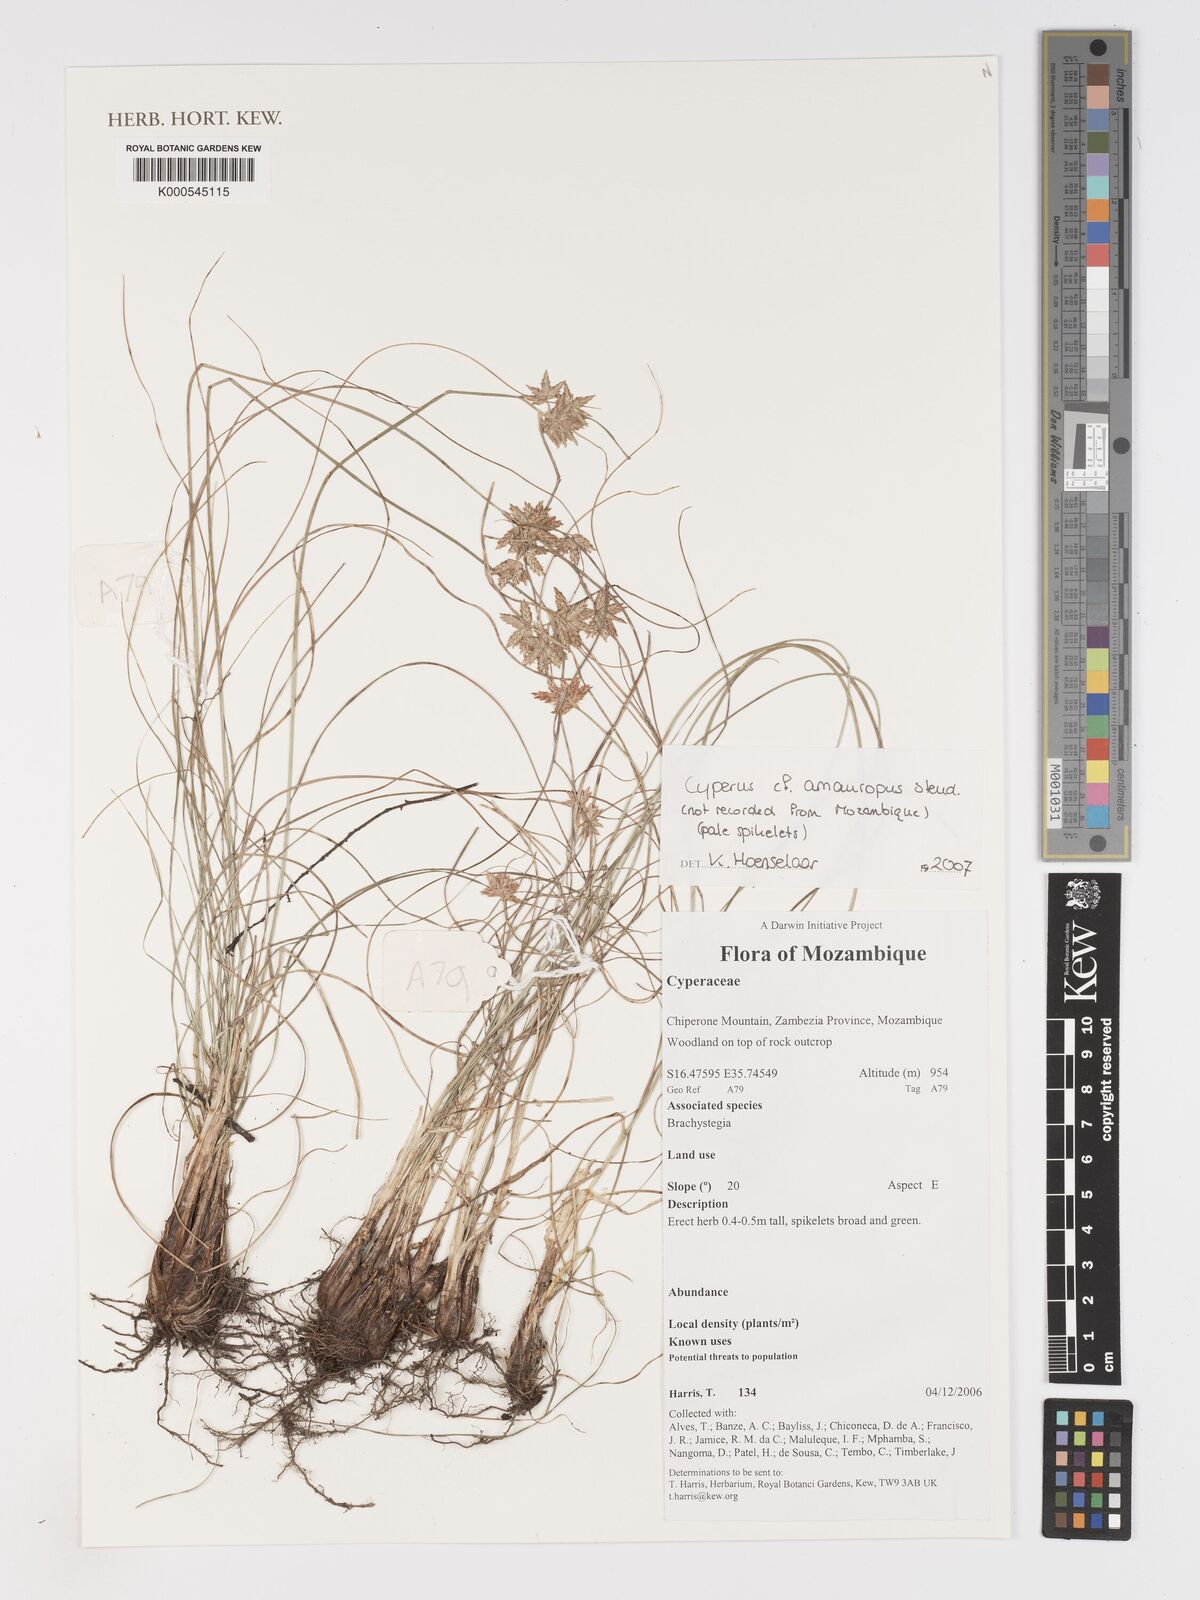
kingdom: Plantae
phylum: Tracheophyta
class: Liliopsida
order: Poales
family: Cyperaceae
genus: Cyperus
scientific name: Cyperus amauropus
